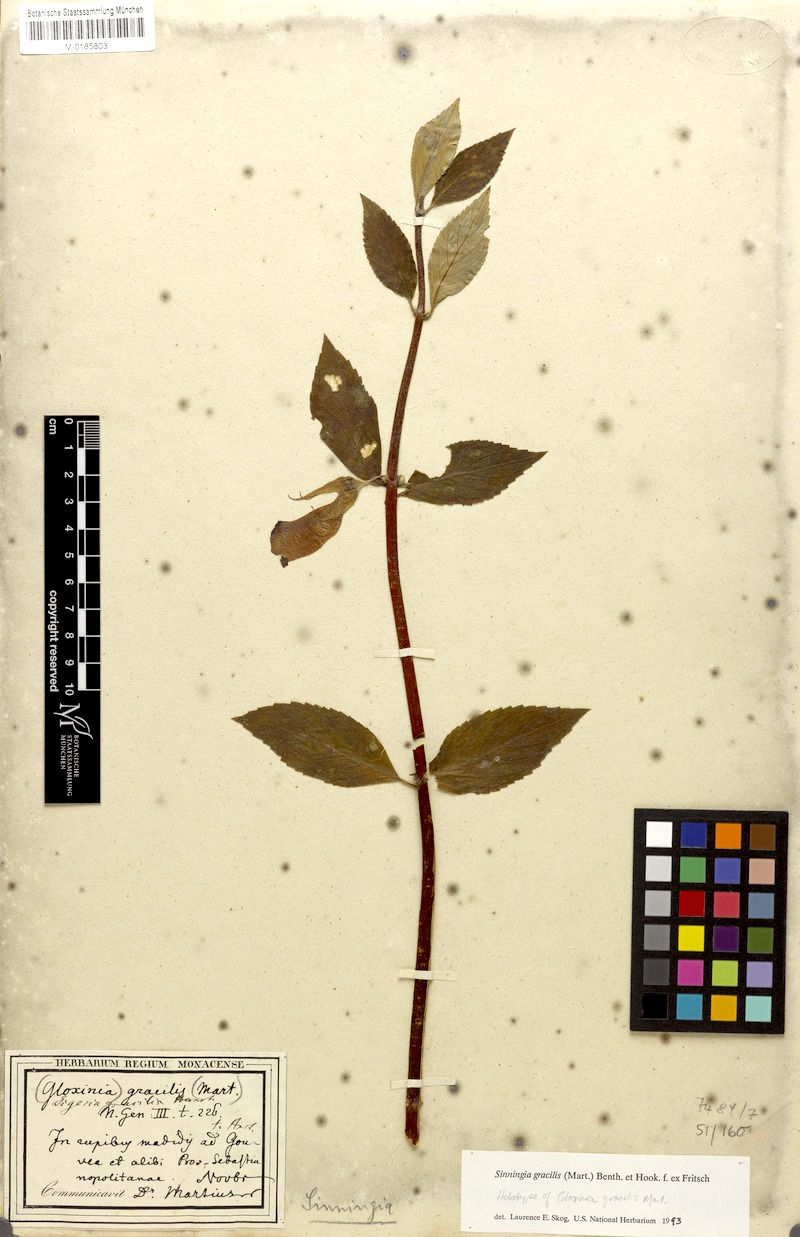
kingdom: Plantae
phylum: Tracheophyta
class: Magnoliopsida
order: Lamiales
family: Gesneriaceae
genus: Paliavana
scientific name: Paliavana gracilis
